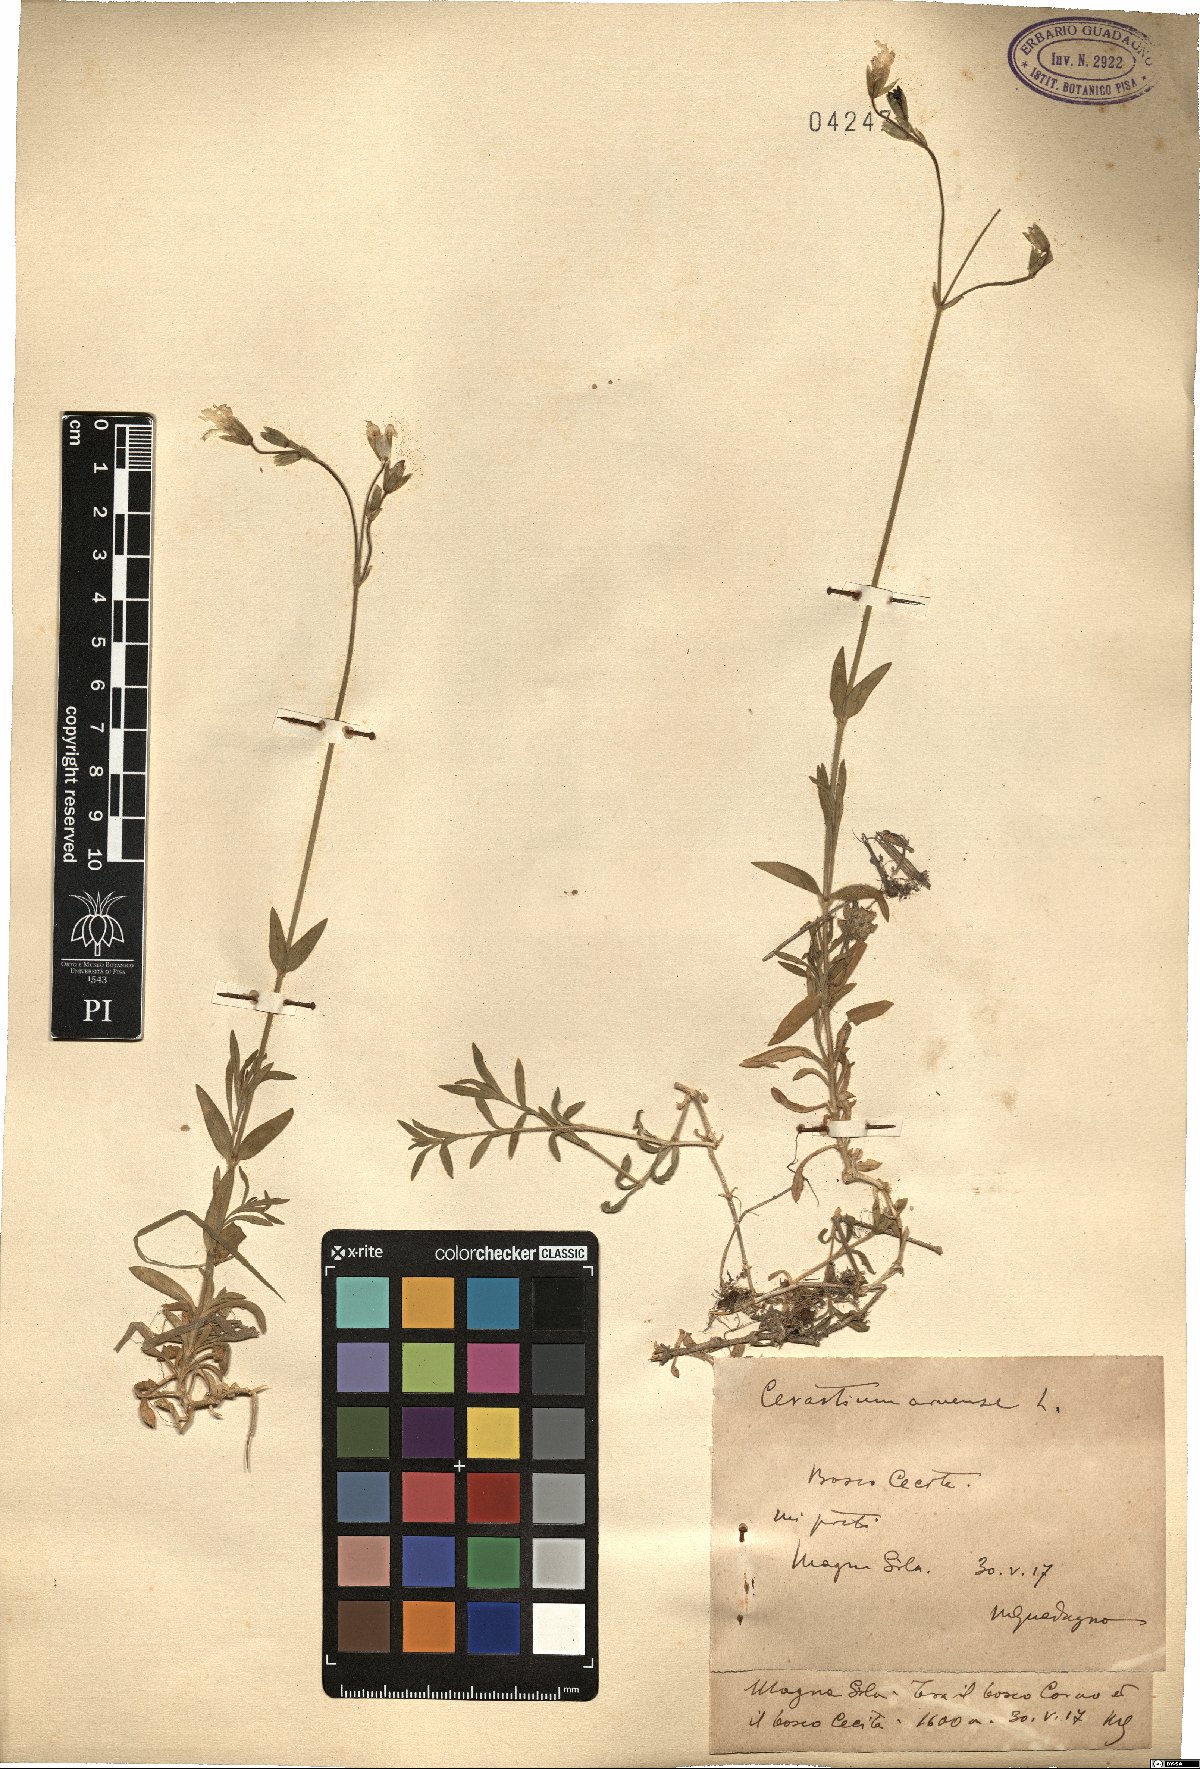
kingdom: Plantae
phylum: Tracheophyta
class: Magnoliopsida
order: Caryophyllales
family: Caryophyllaceae
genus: Cerastium
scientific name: Cerastium arvense
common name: Field mouse-ear
